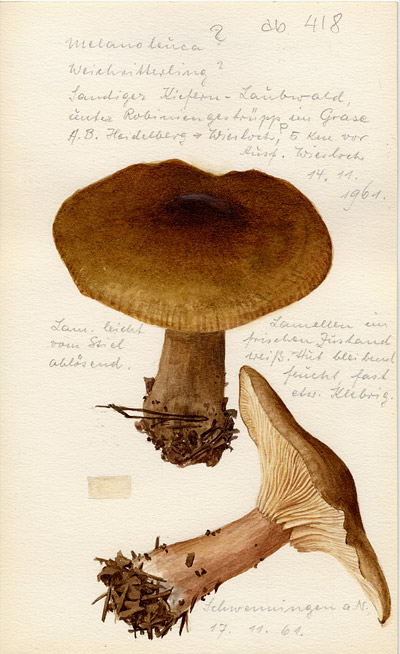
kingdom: Fungi
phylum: Basidiomycota
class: Agaricomycetes
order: Agaricales
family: Tricholomataceae
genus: Melanoleuca
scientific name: Melanoleuca
